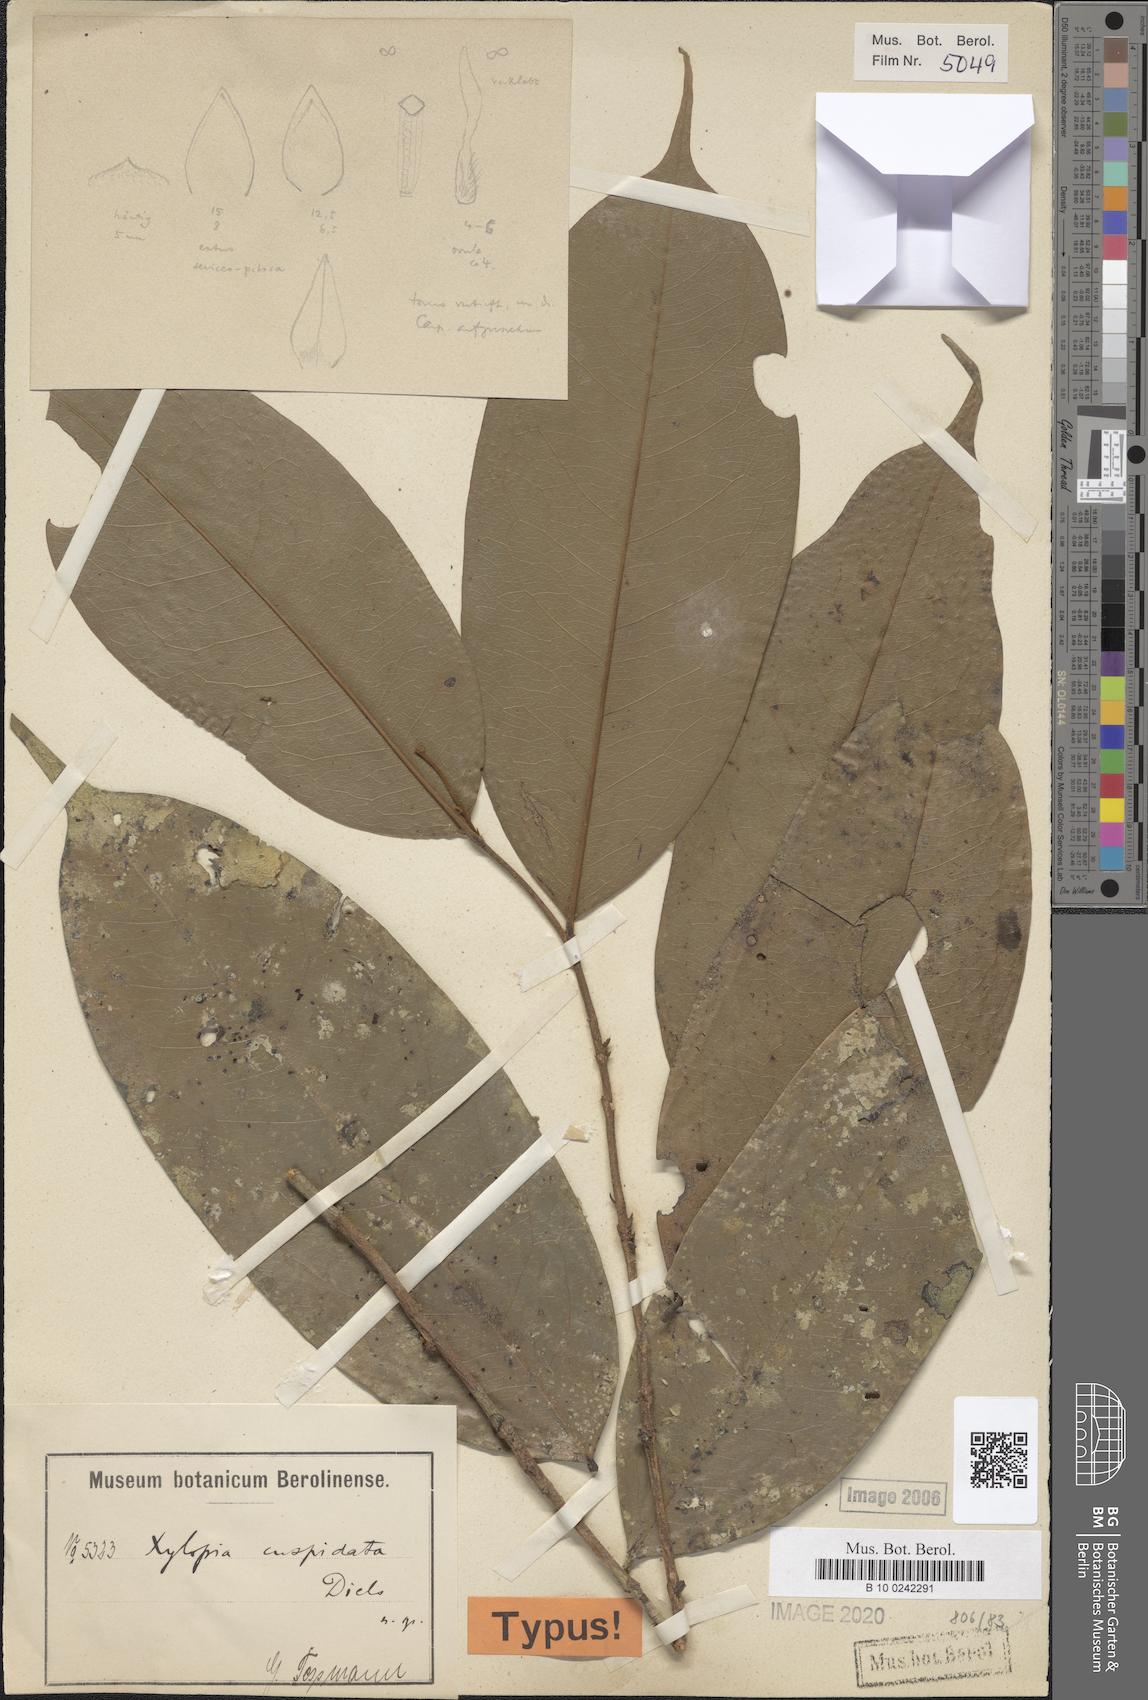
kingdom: Plantae
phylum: Tracheophyta
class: Magnoliopsida
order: Magnoliales
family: Annonaceae
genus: Xylopia
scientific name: Xylopia cuspidata
